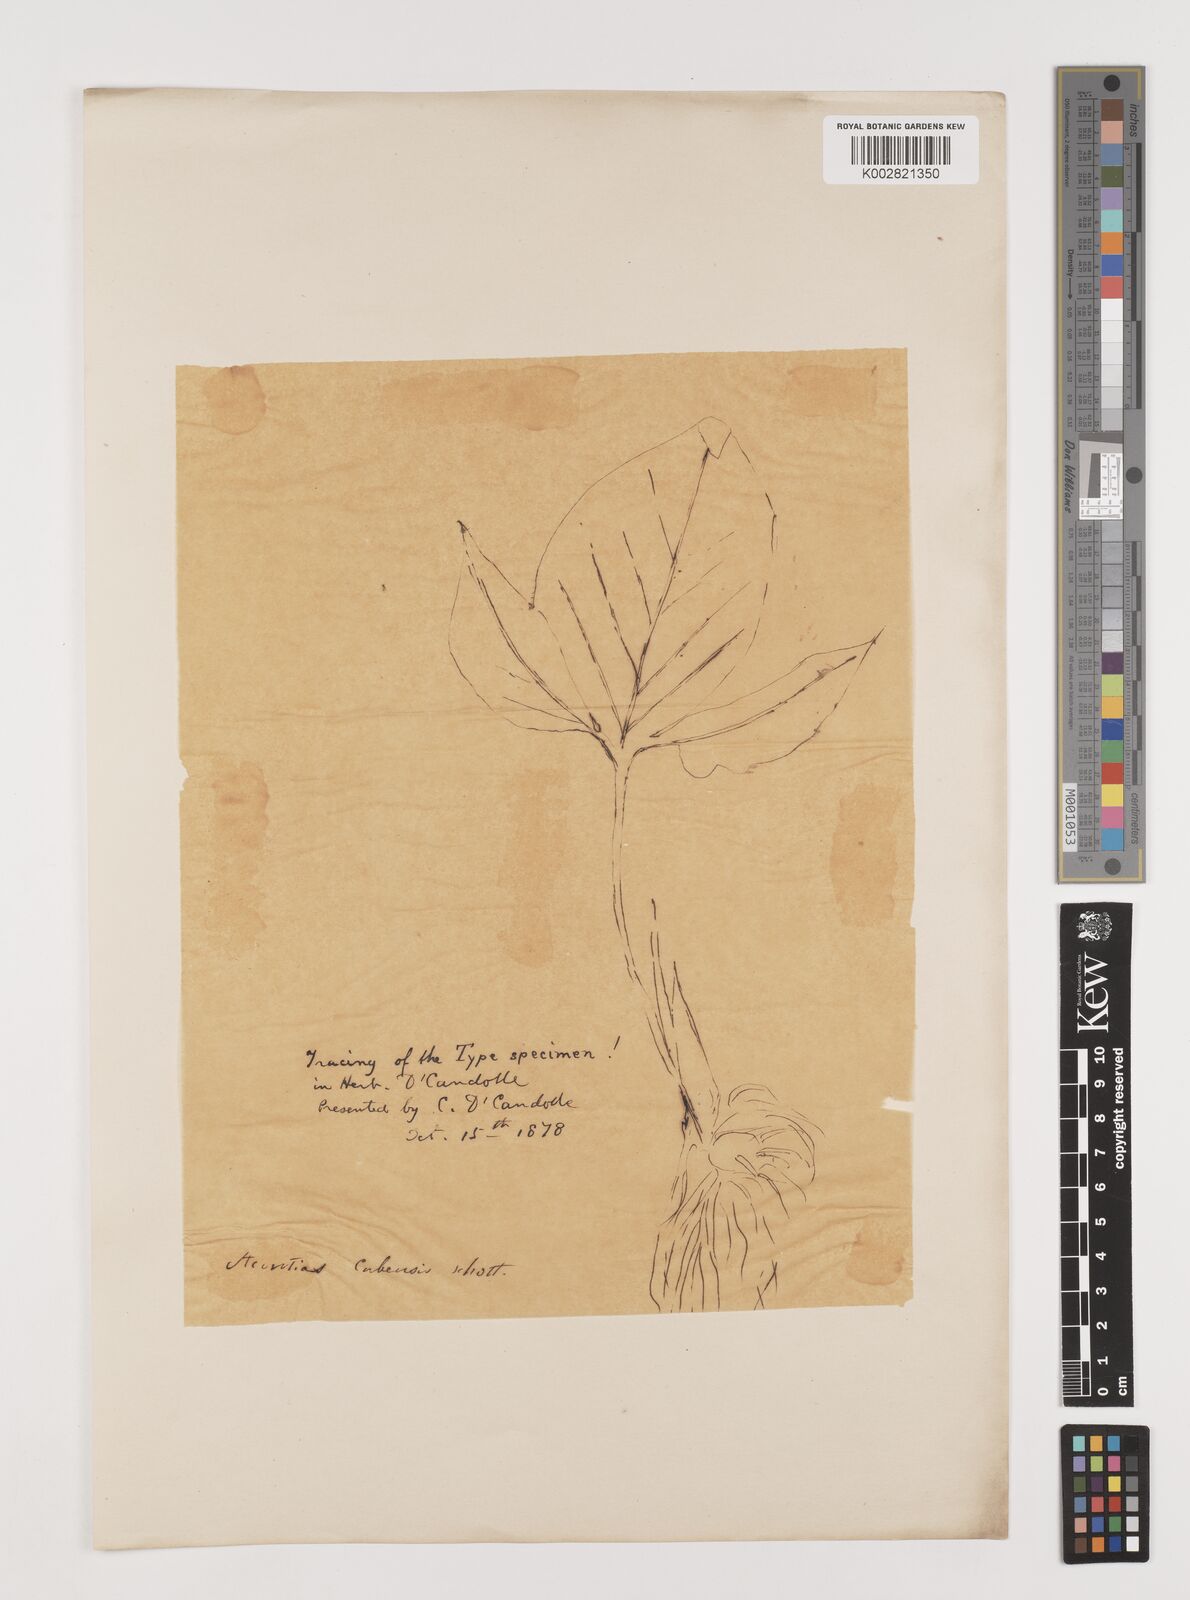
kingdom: Plantae
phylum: Tracheophyta
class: Liliopsida
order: Alismatales
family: Araceae
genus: Xanthosoma
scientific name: Xanthosoma cubense
